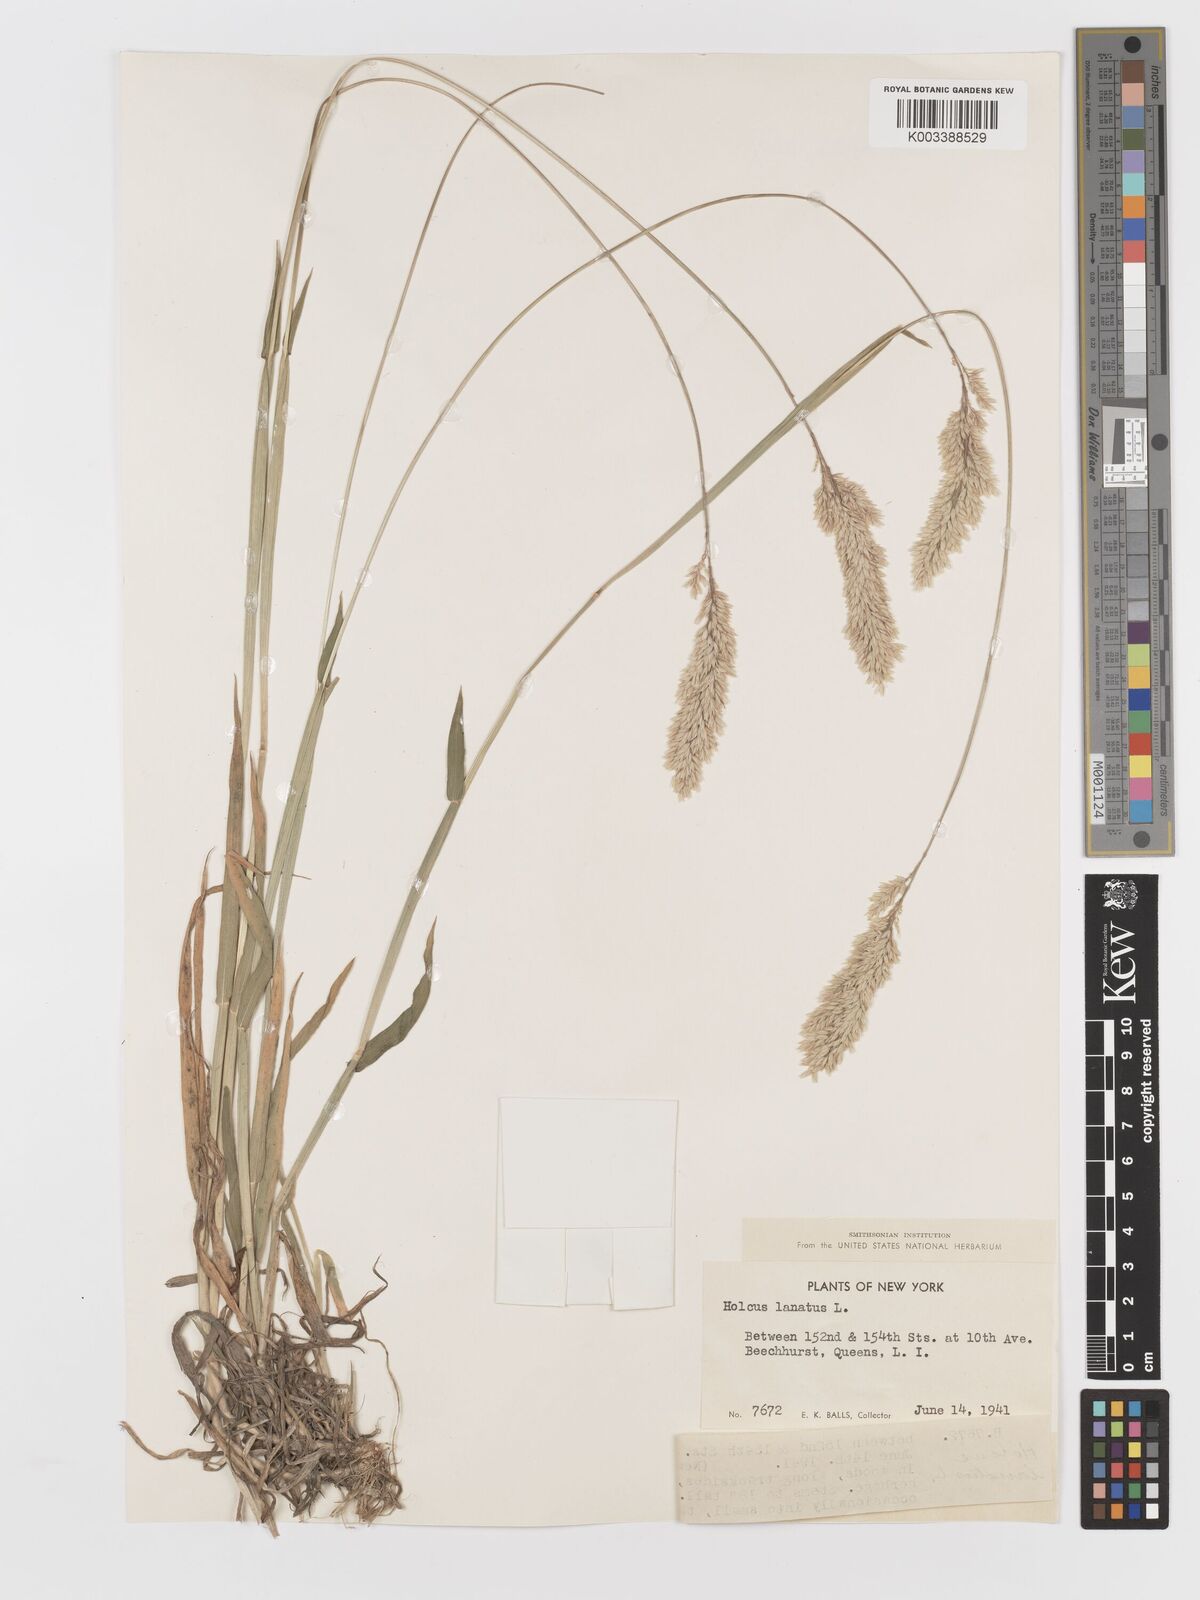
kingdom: Plantae
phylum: Tracheophyta
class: Liliopsida
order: Poales
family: Poaceae
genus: Holcus
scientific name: Holcus lanatus
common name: Yorkshire-fog
